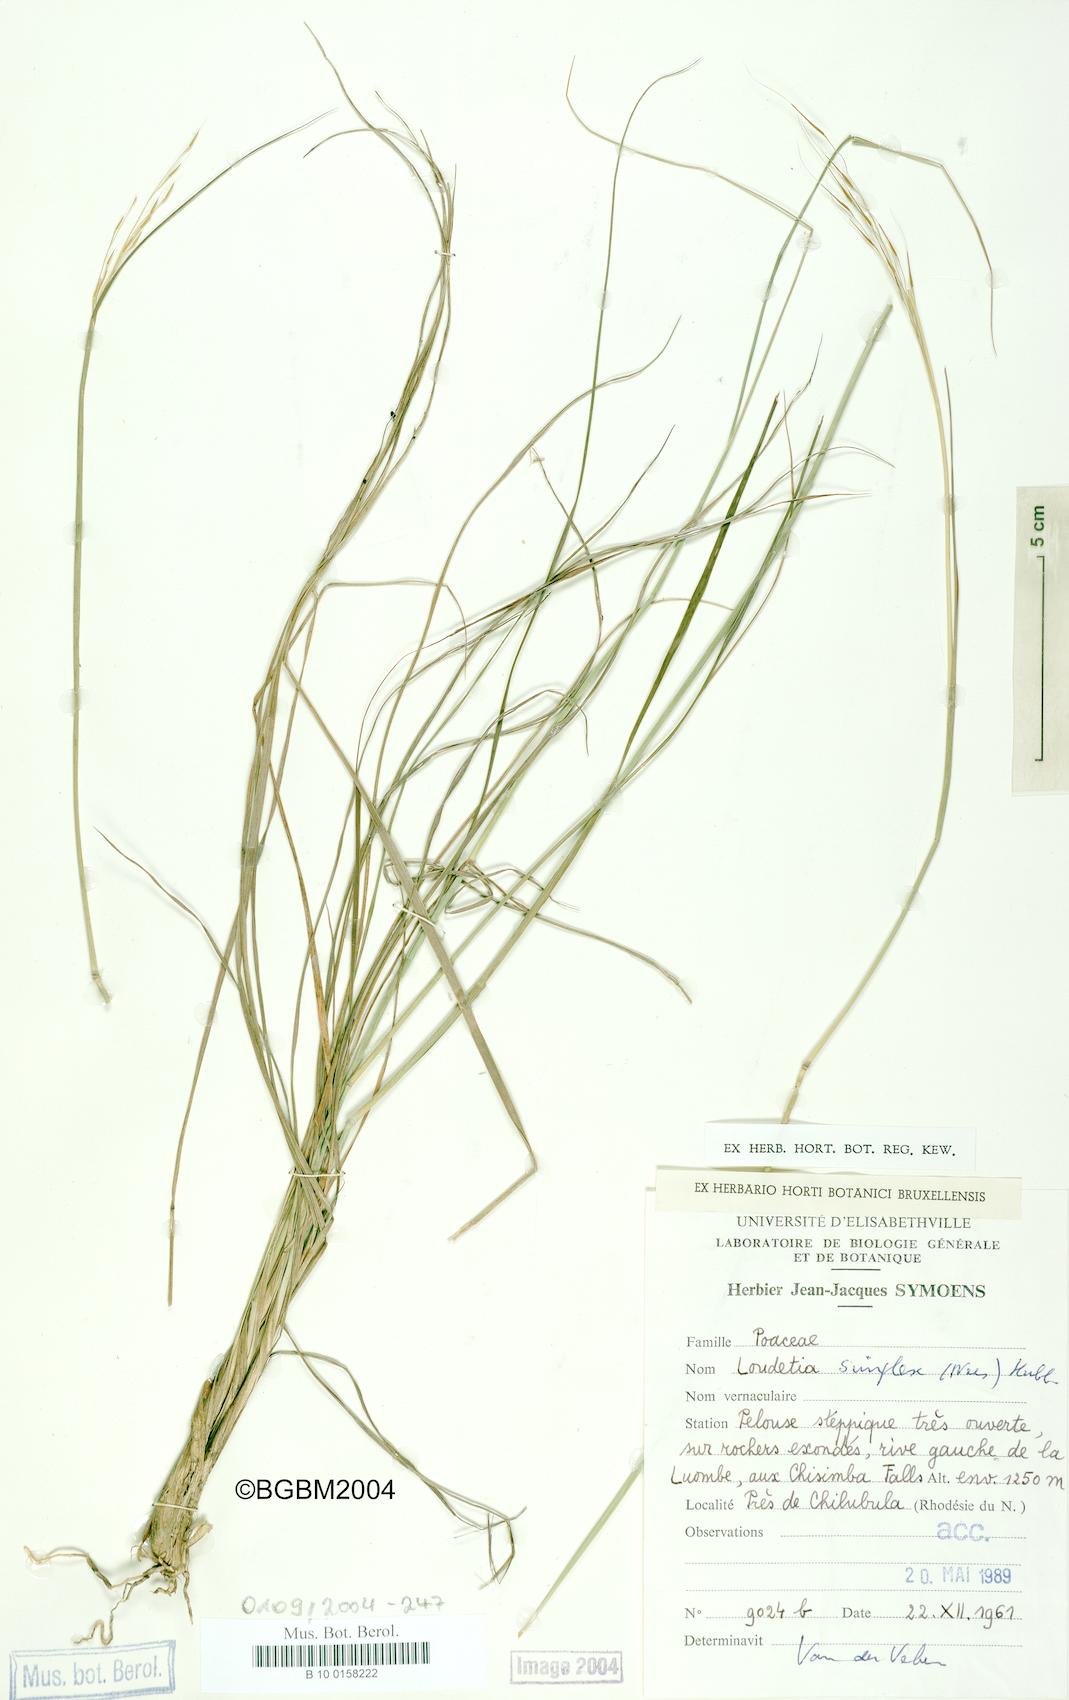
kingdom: Plantae
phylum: Tracheophyta
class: Liliopsida
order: Poales
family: Poaceae
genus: Loudetia
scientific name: Loudetia simplex
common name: Common russet grass
